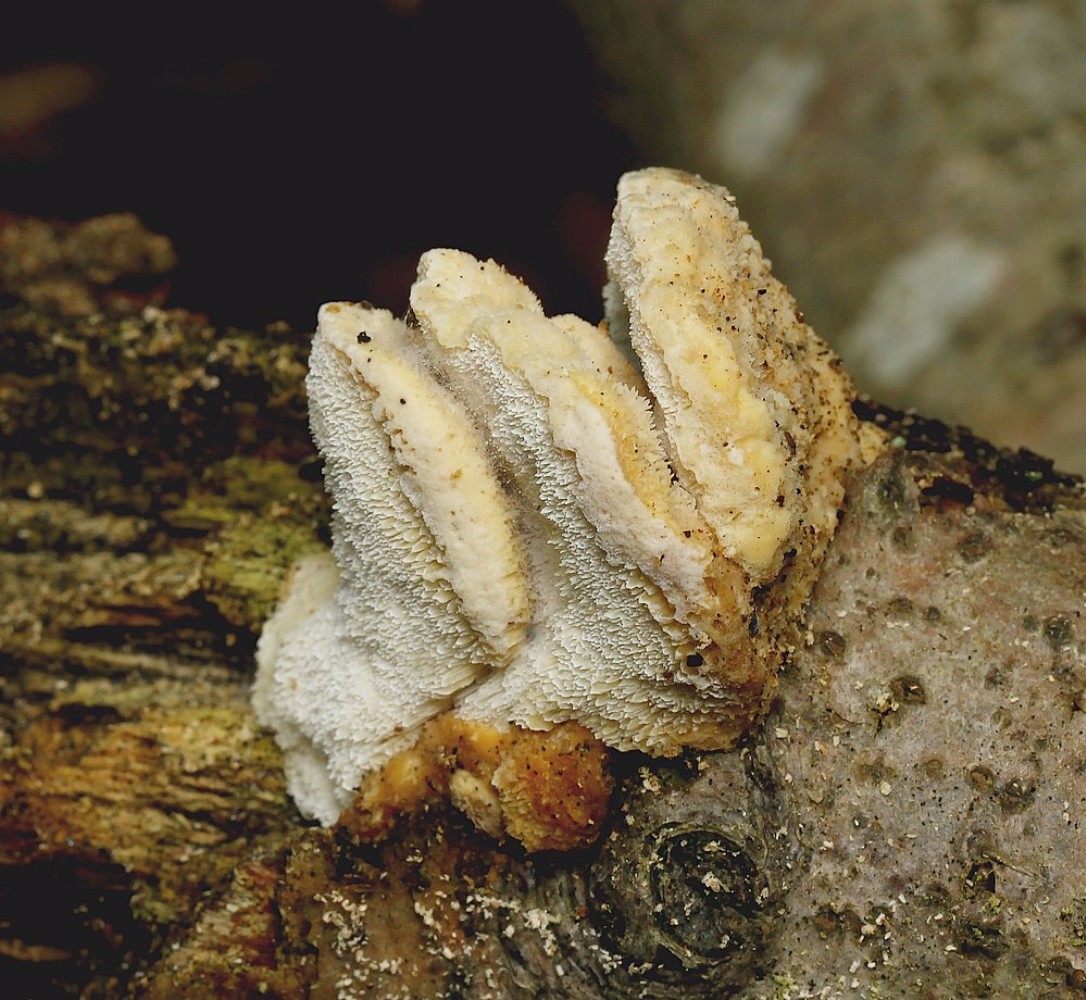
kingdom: Fungi
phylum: Basidiomycota
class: Agaricomycetes
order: Polyporales
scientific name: Polyporales
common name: poresvampordenen
